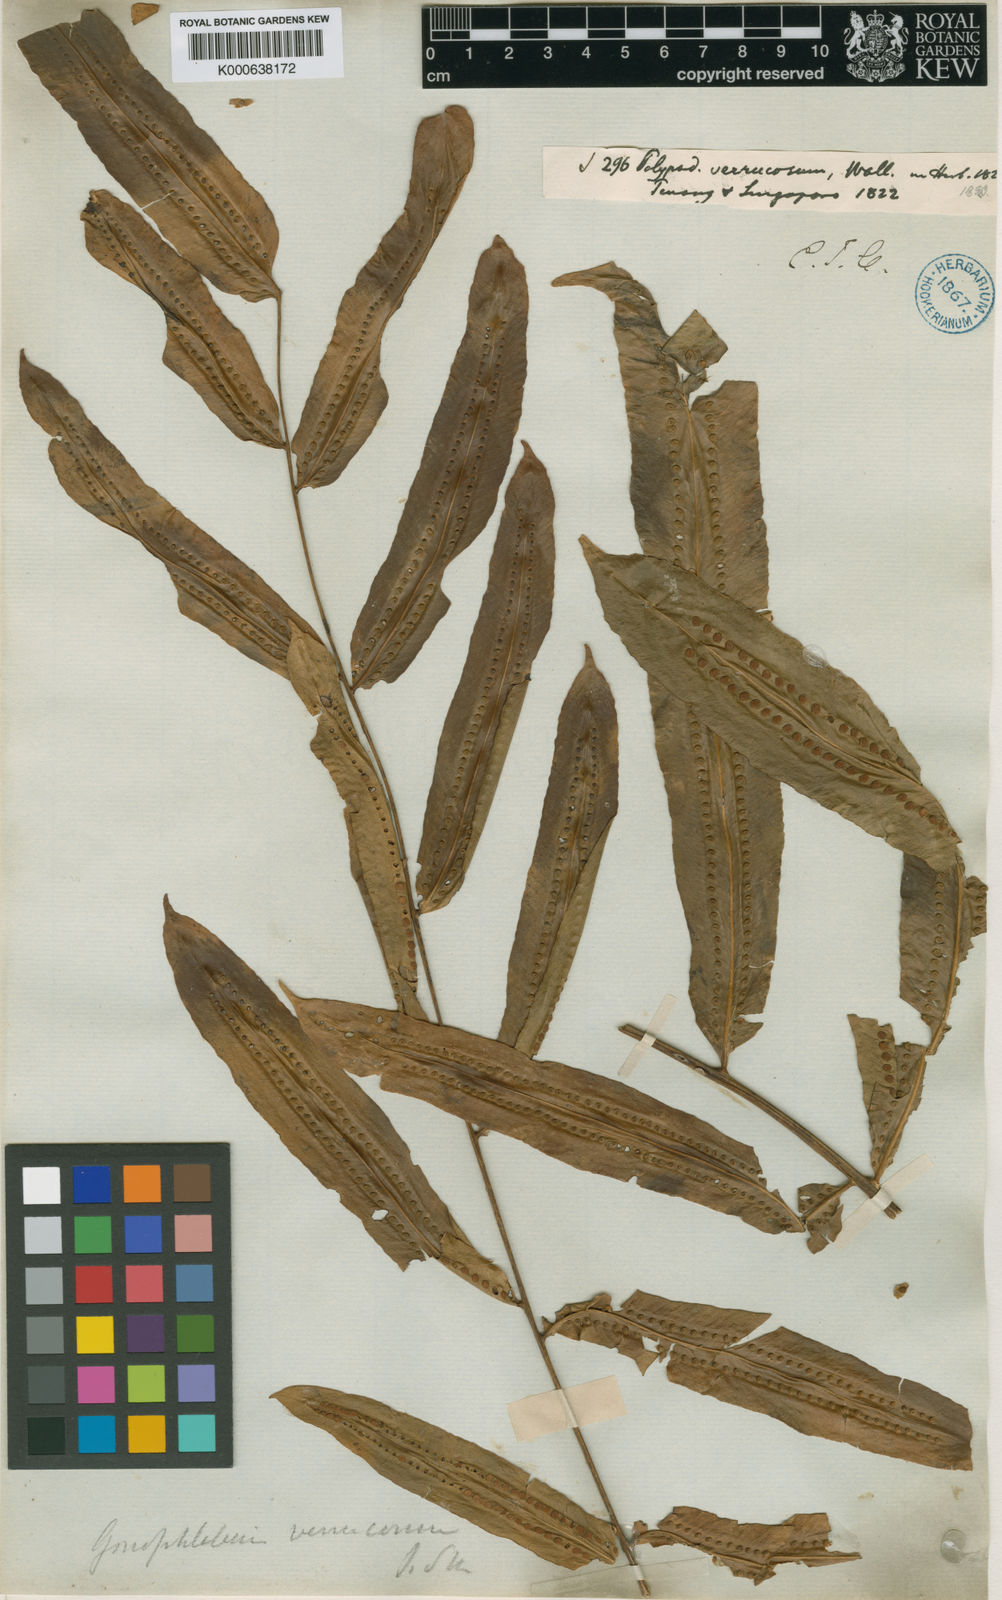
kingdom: Plantae
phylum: Tracheophyta
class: Polypodiopsida
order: Polypodiales
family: Polypodiaceae
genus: Microgramma
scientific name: Microgramma percussa
